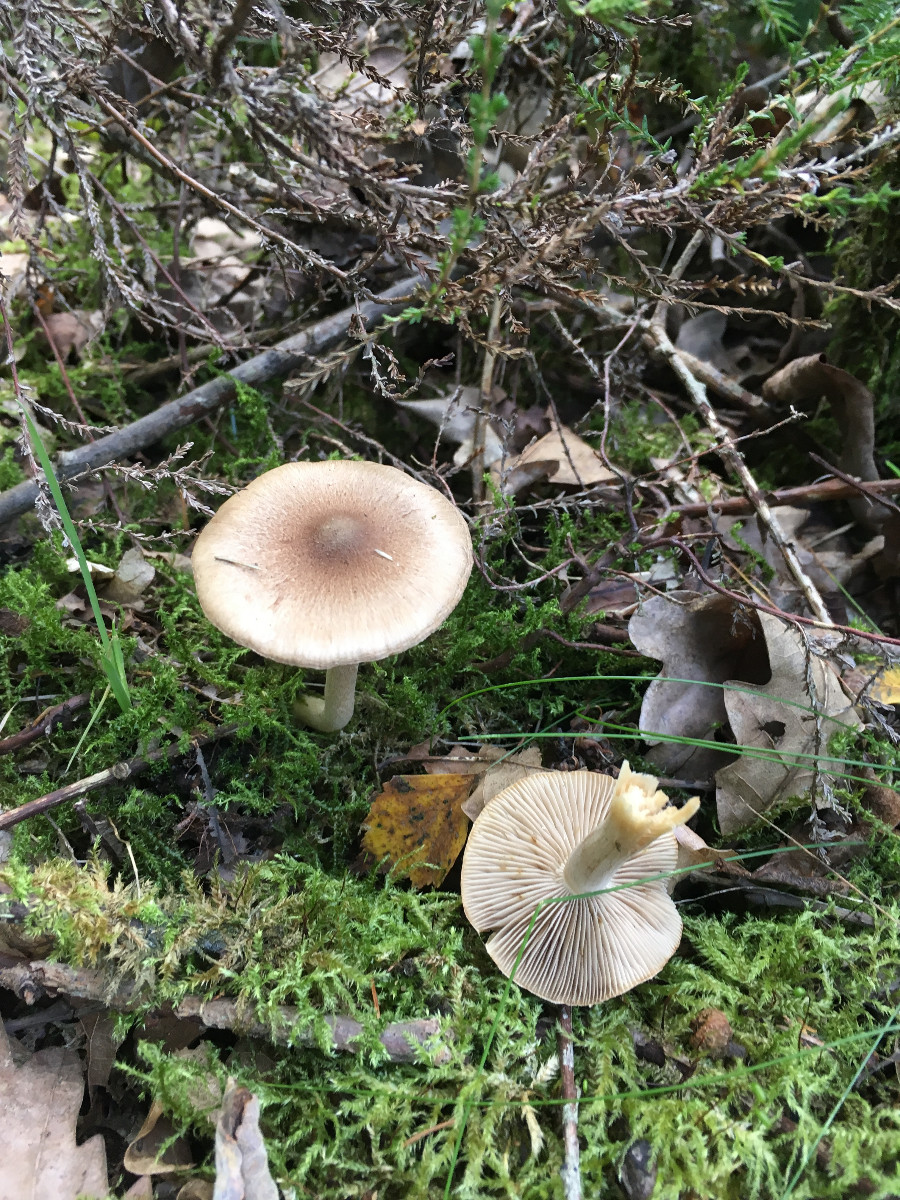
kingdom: Fungi
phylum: Basidiomycota
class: Agaricomycetes
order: Agaricales
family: Inocybaceae
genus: Inocybe
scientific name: Inocybe
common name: trævlhat
